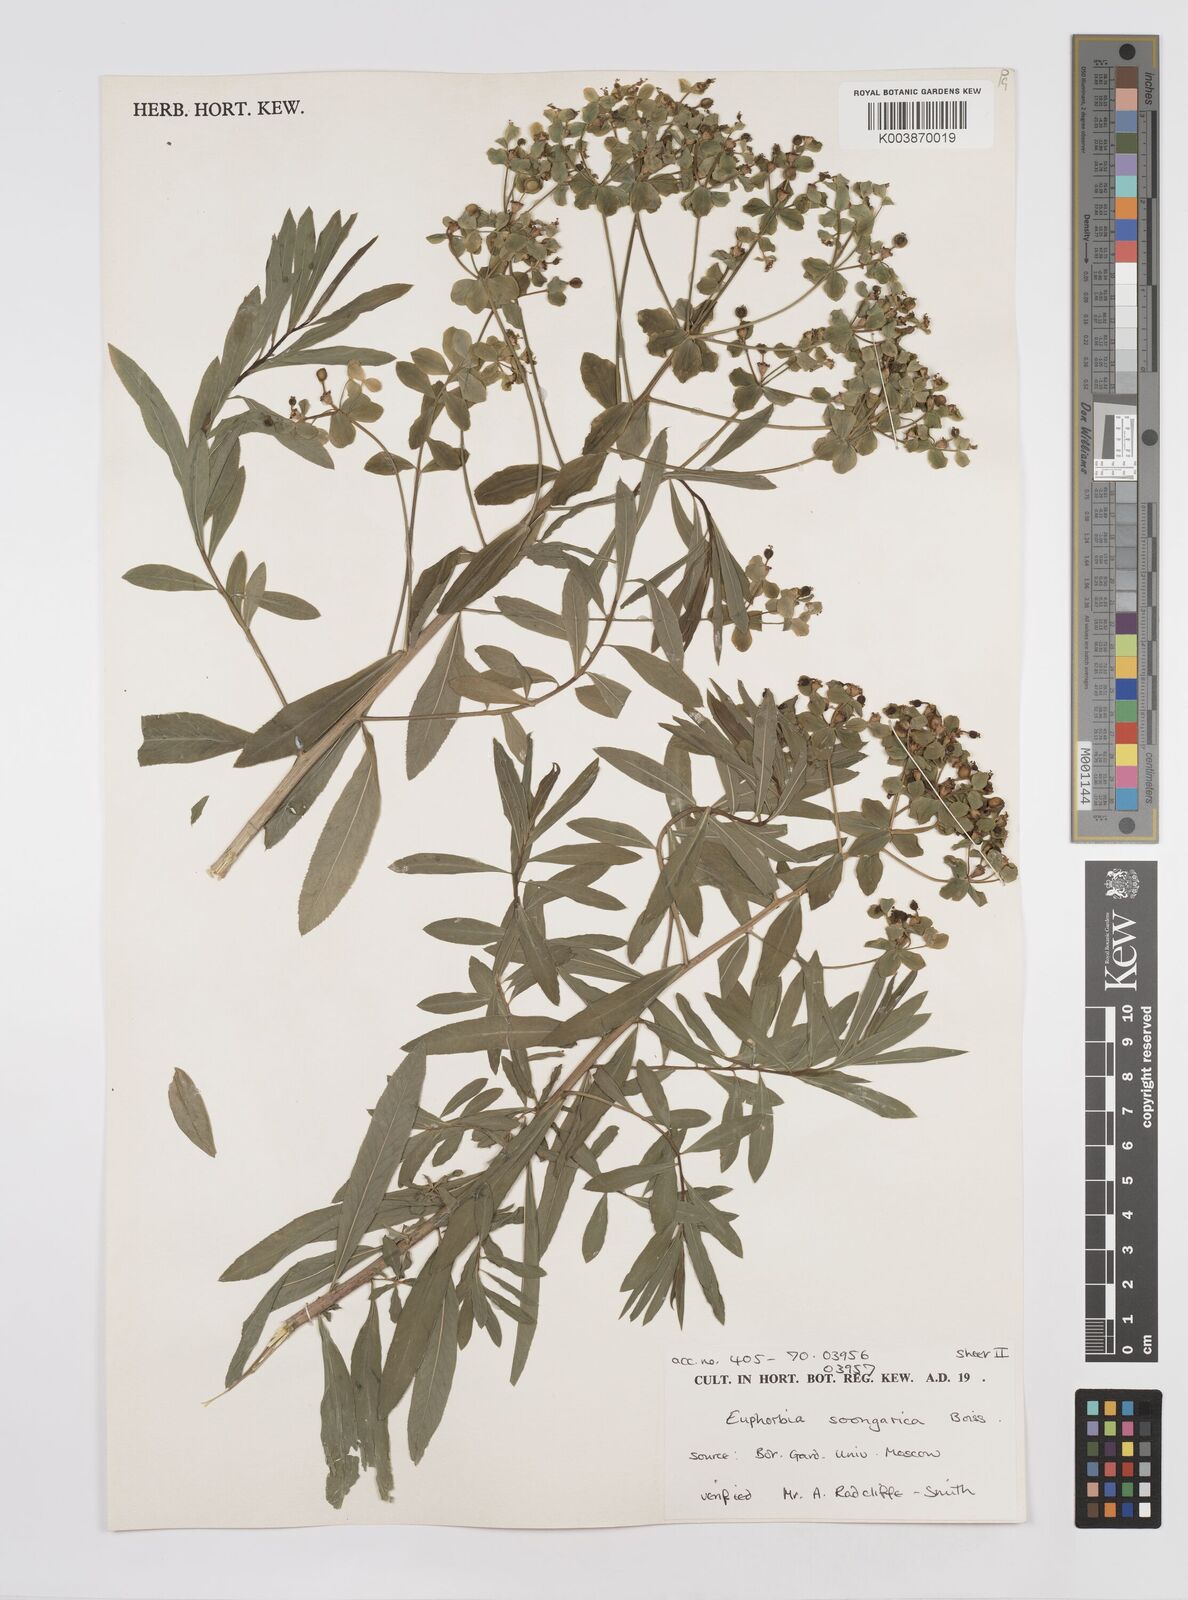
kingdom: Plantae
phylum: Tracheophyta
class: Magnoliopsida
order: Malpighiales
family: Euphorbiaceae
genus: Euphorbia
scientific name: Euphorbia soongarica
